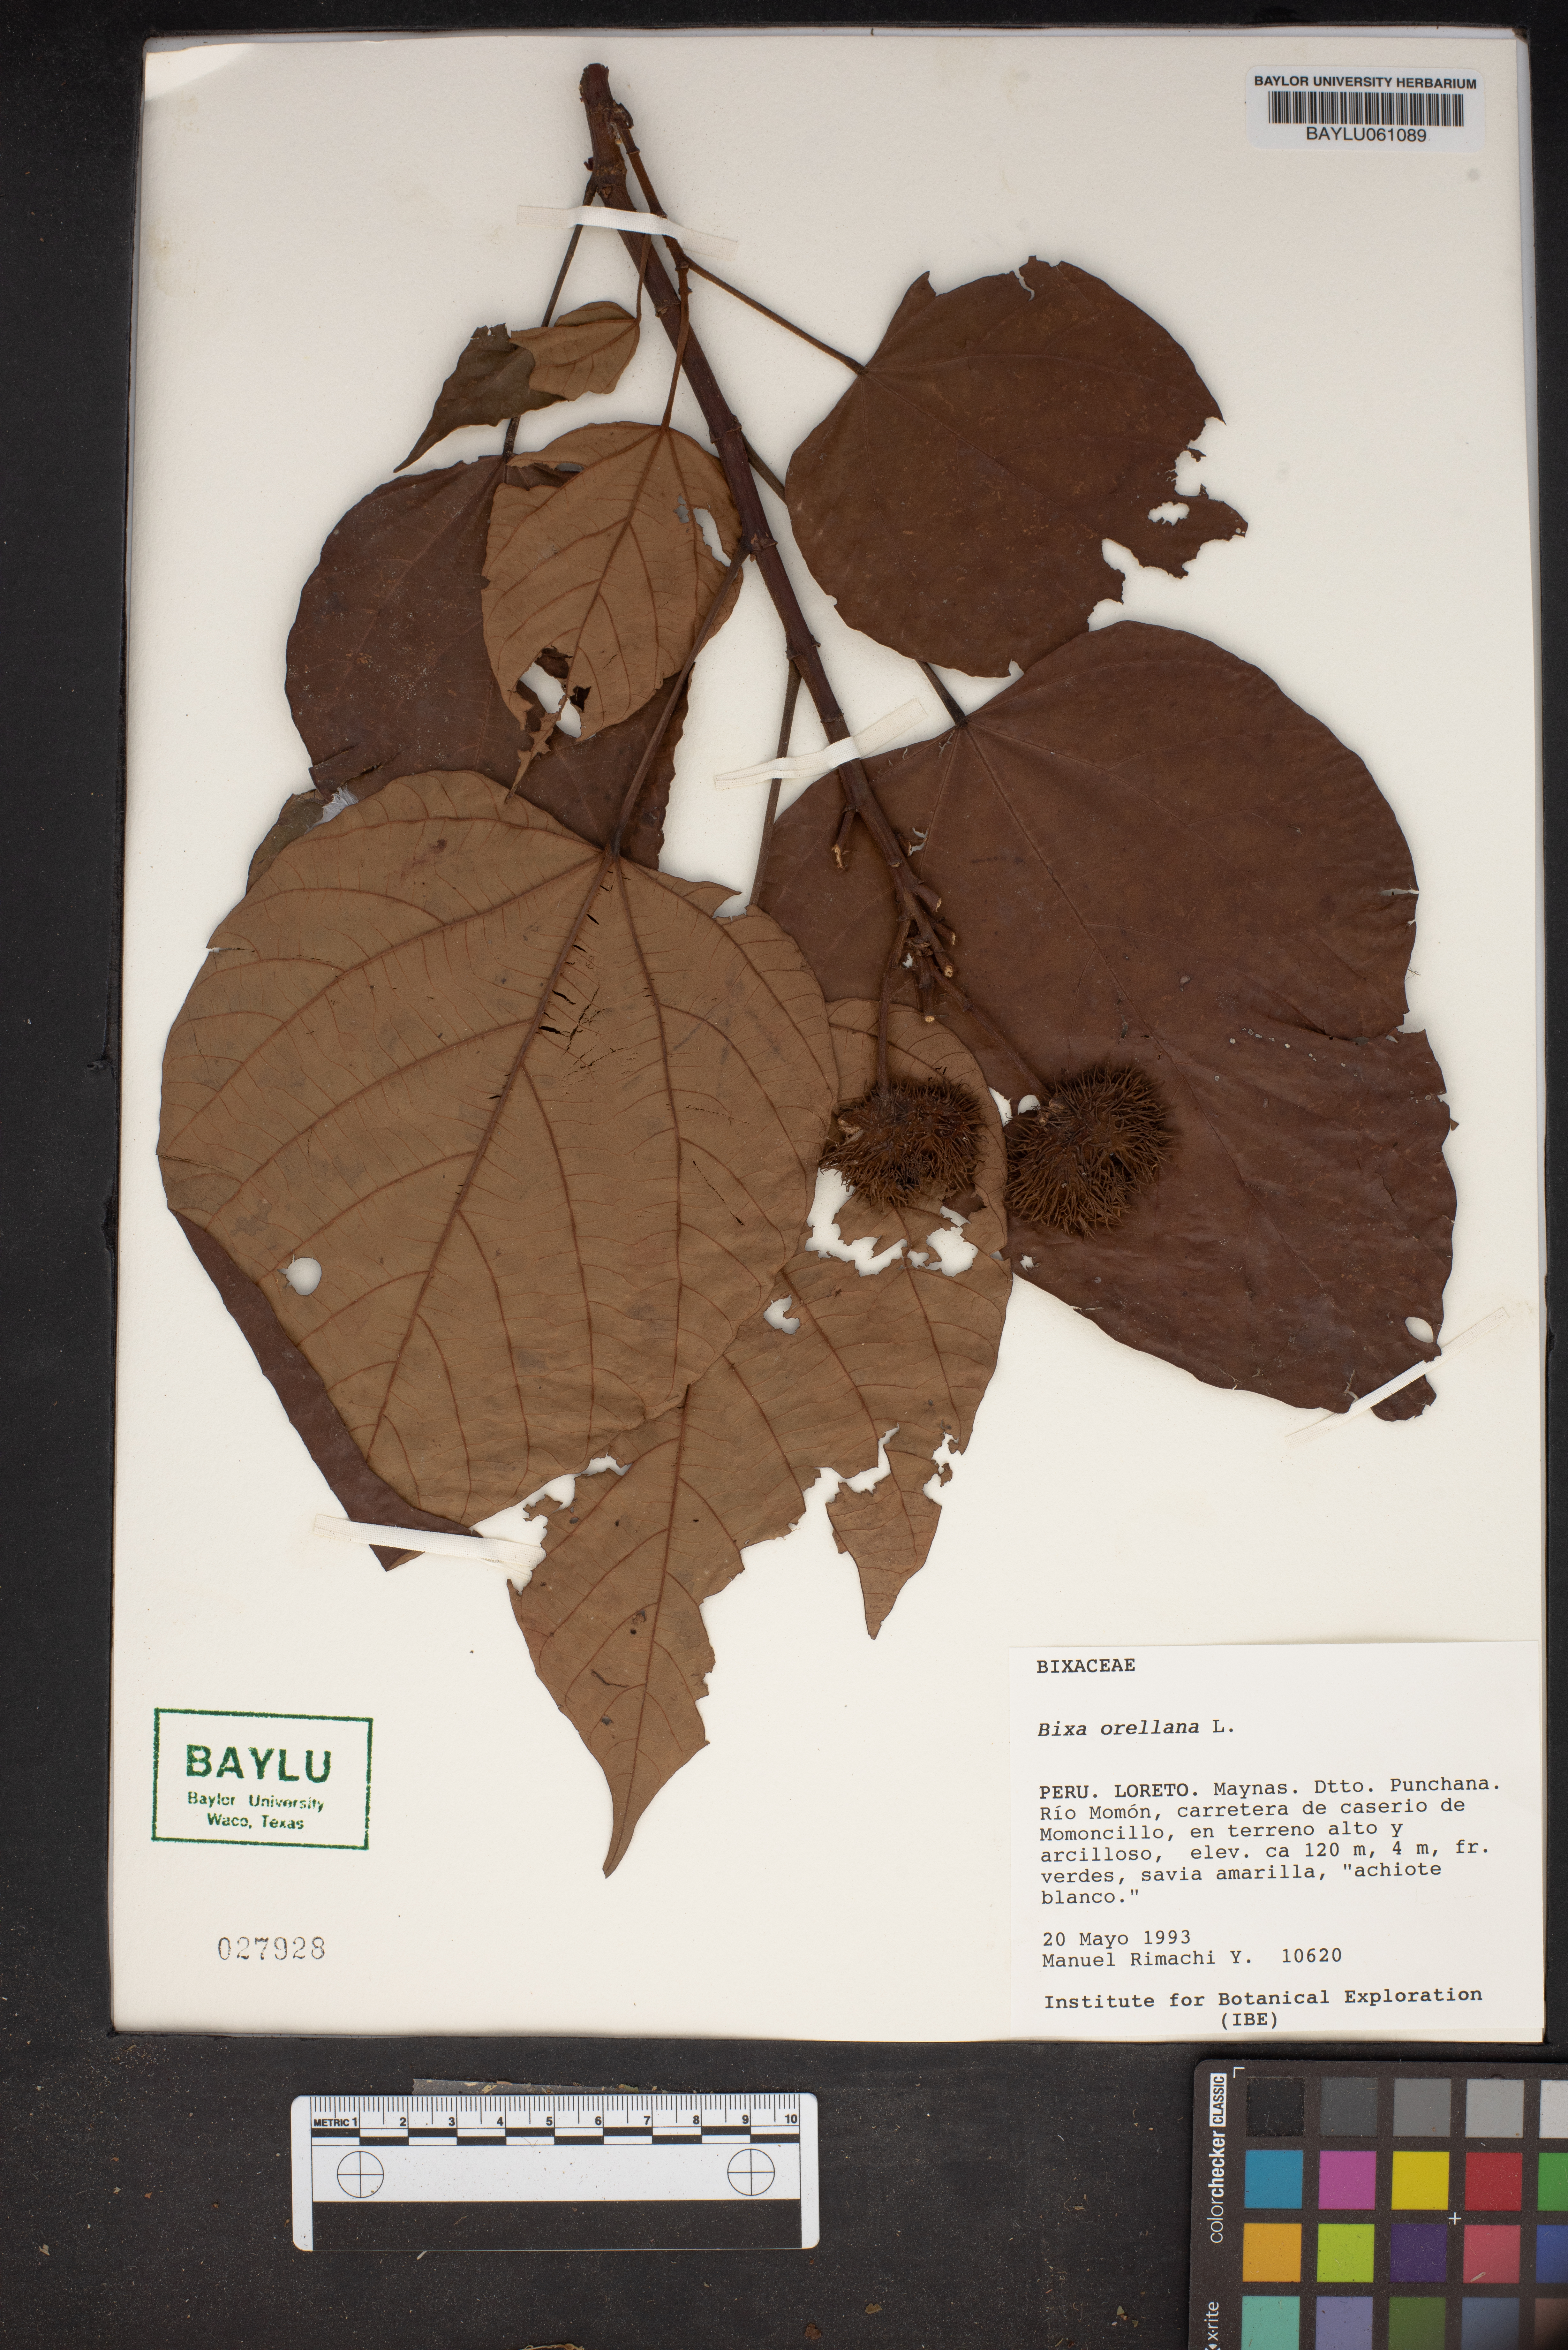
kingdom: Plantae
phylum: Tracheophyta
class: Magnoliopsida
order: Malvales
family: Bixaceae
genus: Bixa
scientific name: Bixa orellana
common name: Lipsticktree
